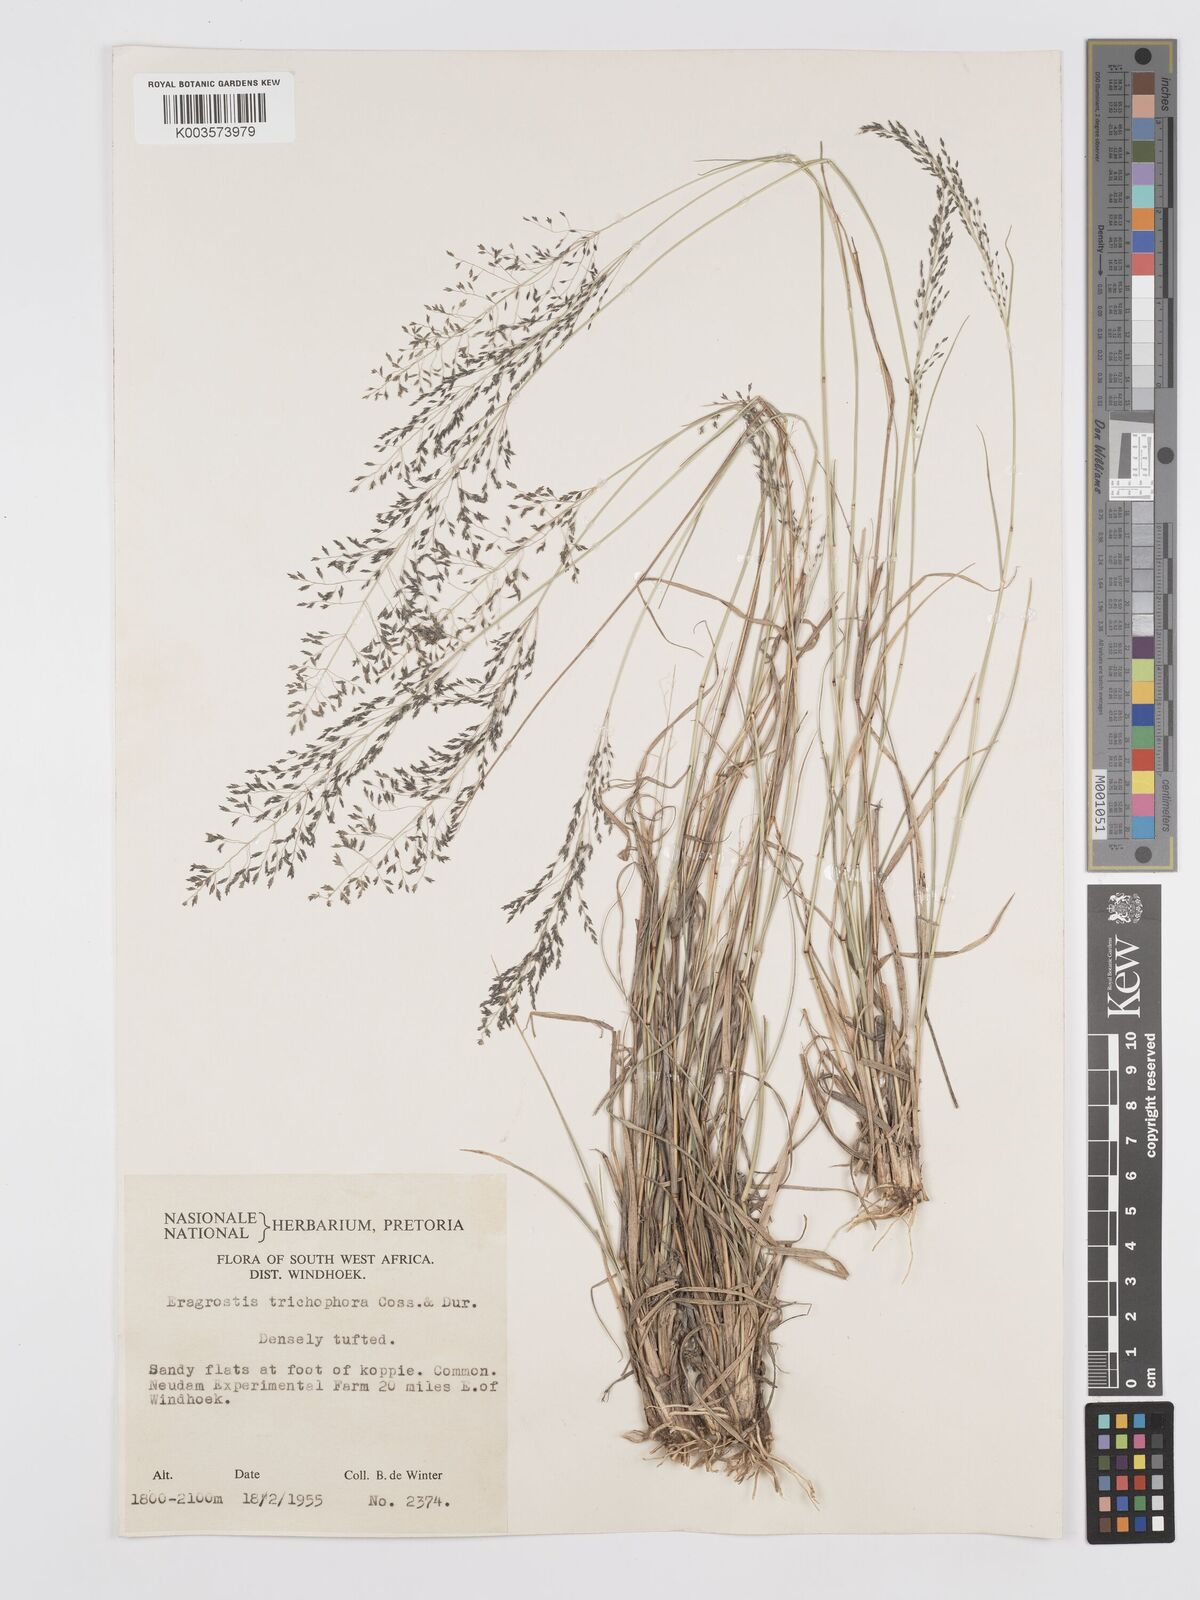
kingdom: Plantae
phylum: Tracheophyta
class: Liliopsida
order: Poales
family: Poaceae
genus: Eragrostis
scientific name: Eragrostis cylindriflora
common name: Cylinderflower lovegrass
